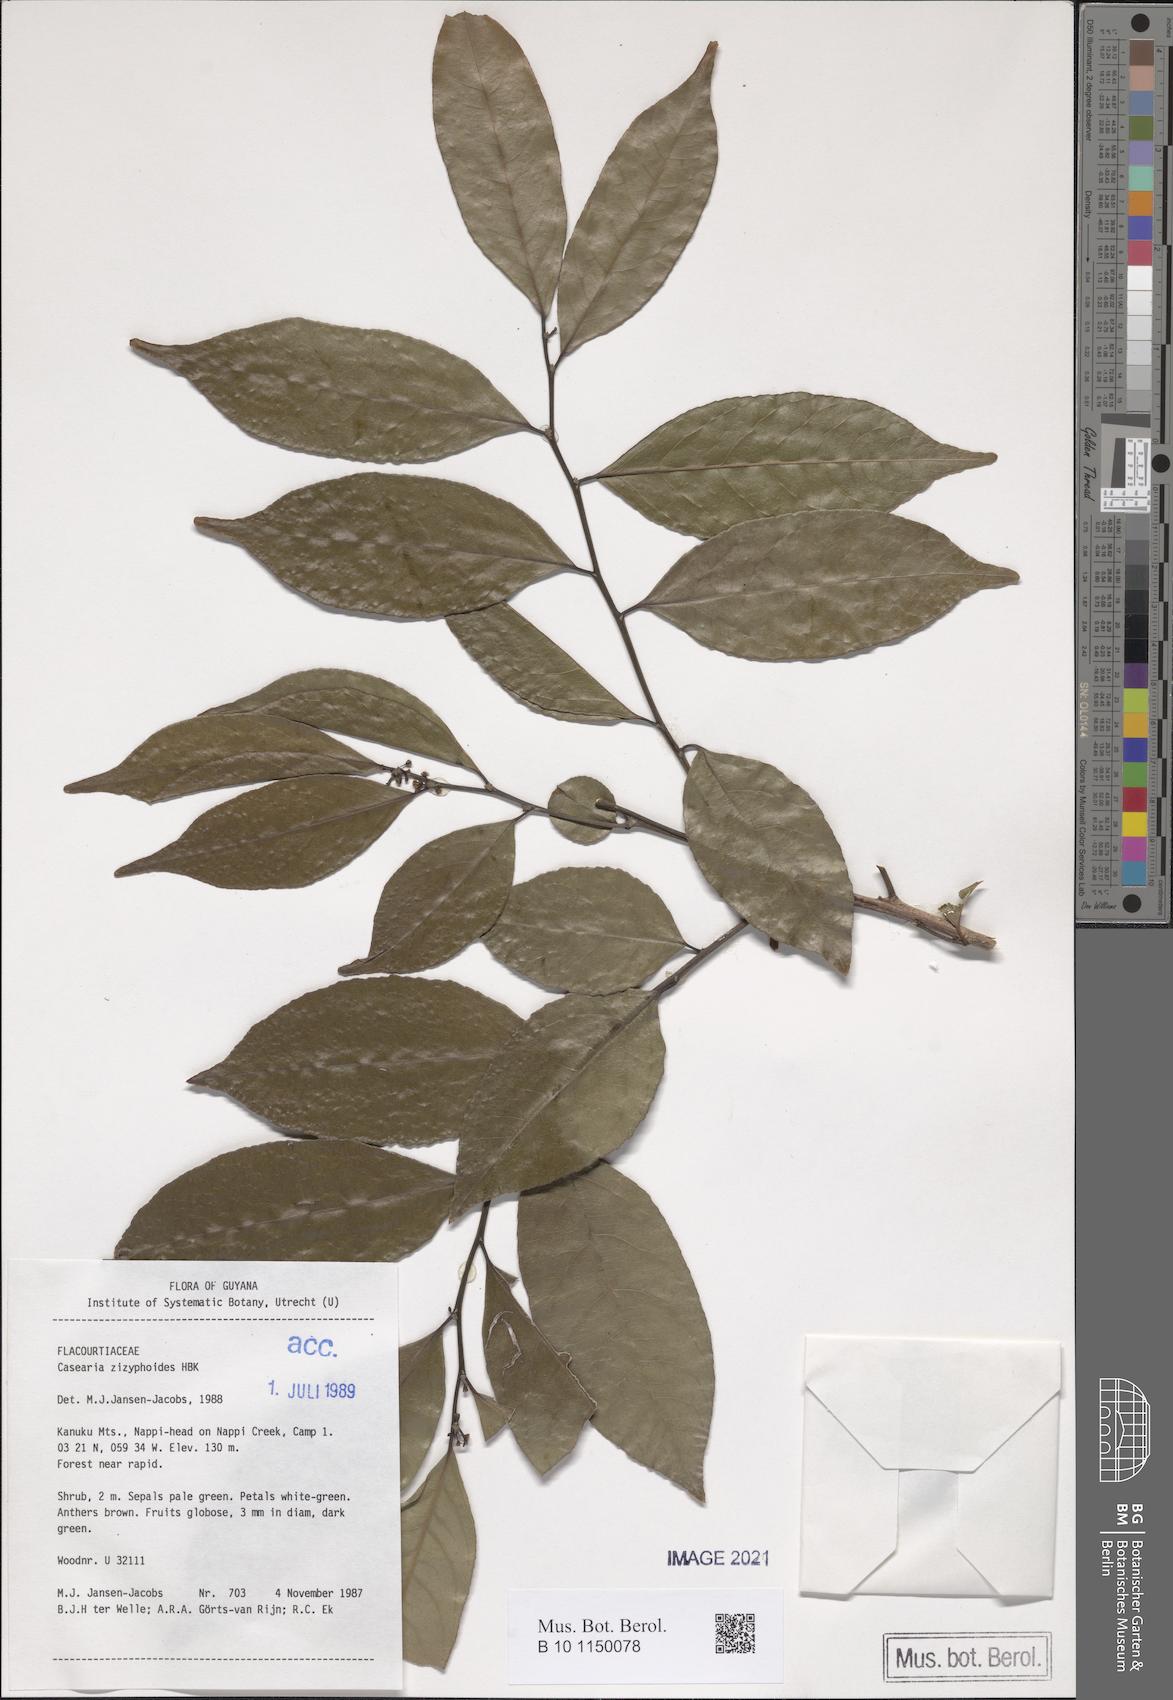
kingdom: Plantae
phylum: Tracheophyta
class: Magnoliopsida
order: Malpighiales
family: Salicaceae
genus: Casearia
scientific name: Casearia zizyphoides
